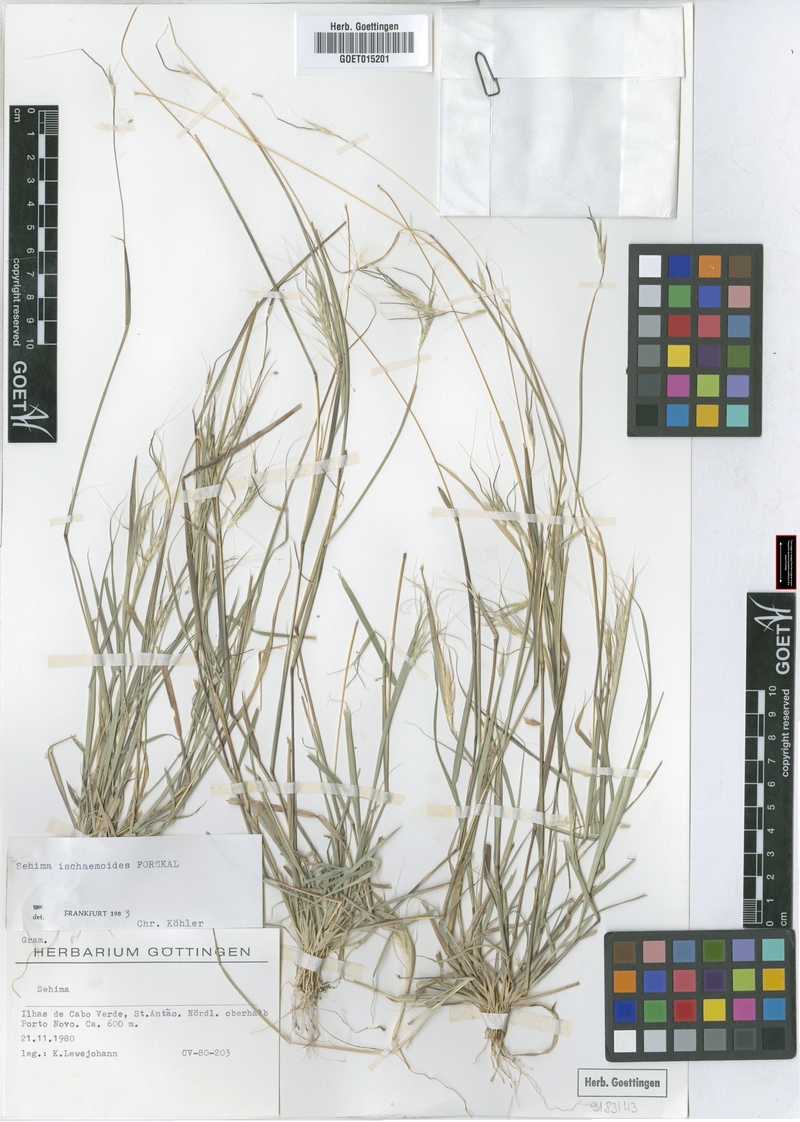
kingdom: Plantae
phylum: Tracheophyta
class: Liliopsida
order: Poales
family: Poaceae
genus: Sehima
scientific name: Sehima ischaemoides
